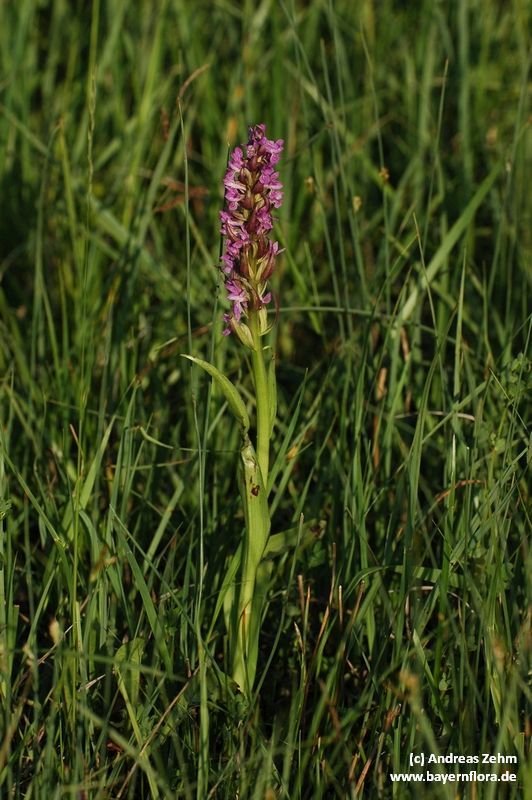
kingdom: Plantae
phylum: Tracheophyta
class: Liliopsida
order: Asparagales
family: Orchidaceae
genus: Dactylorhiza
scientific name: Dactylorhiza incarnata
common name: Early marsh-orchid
